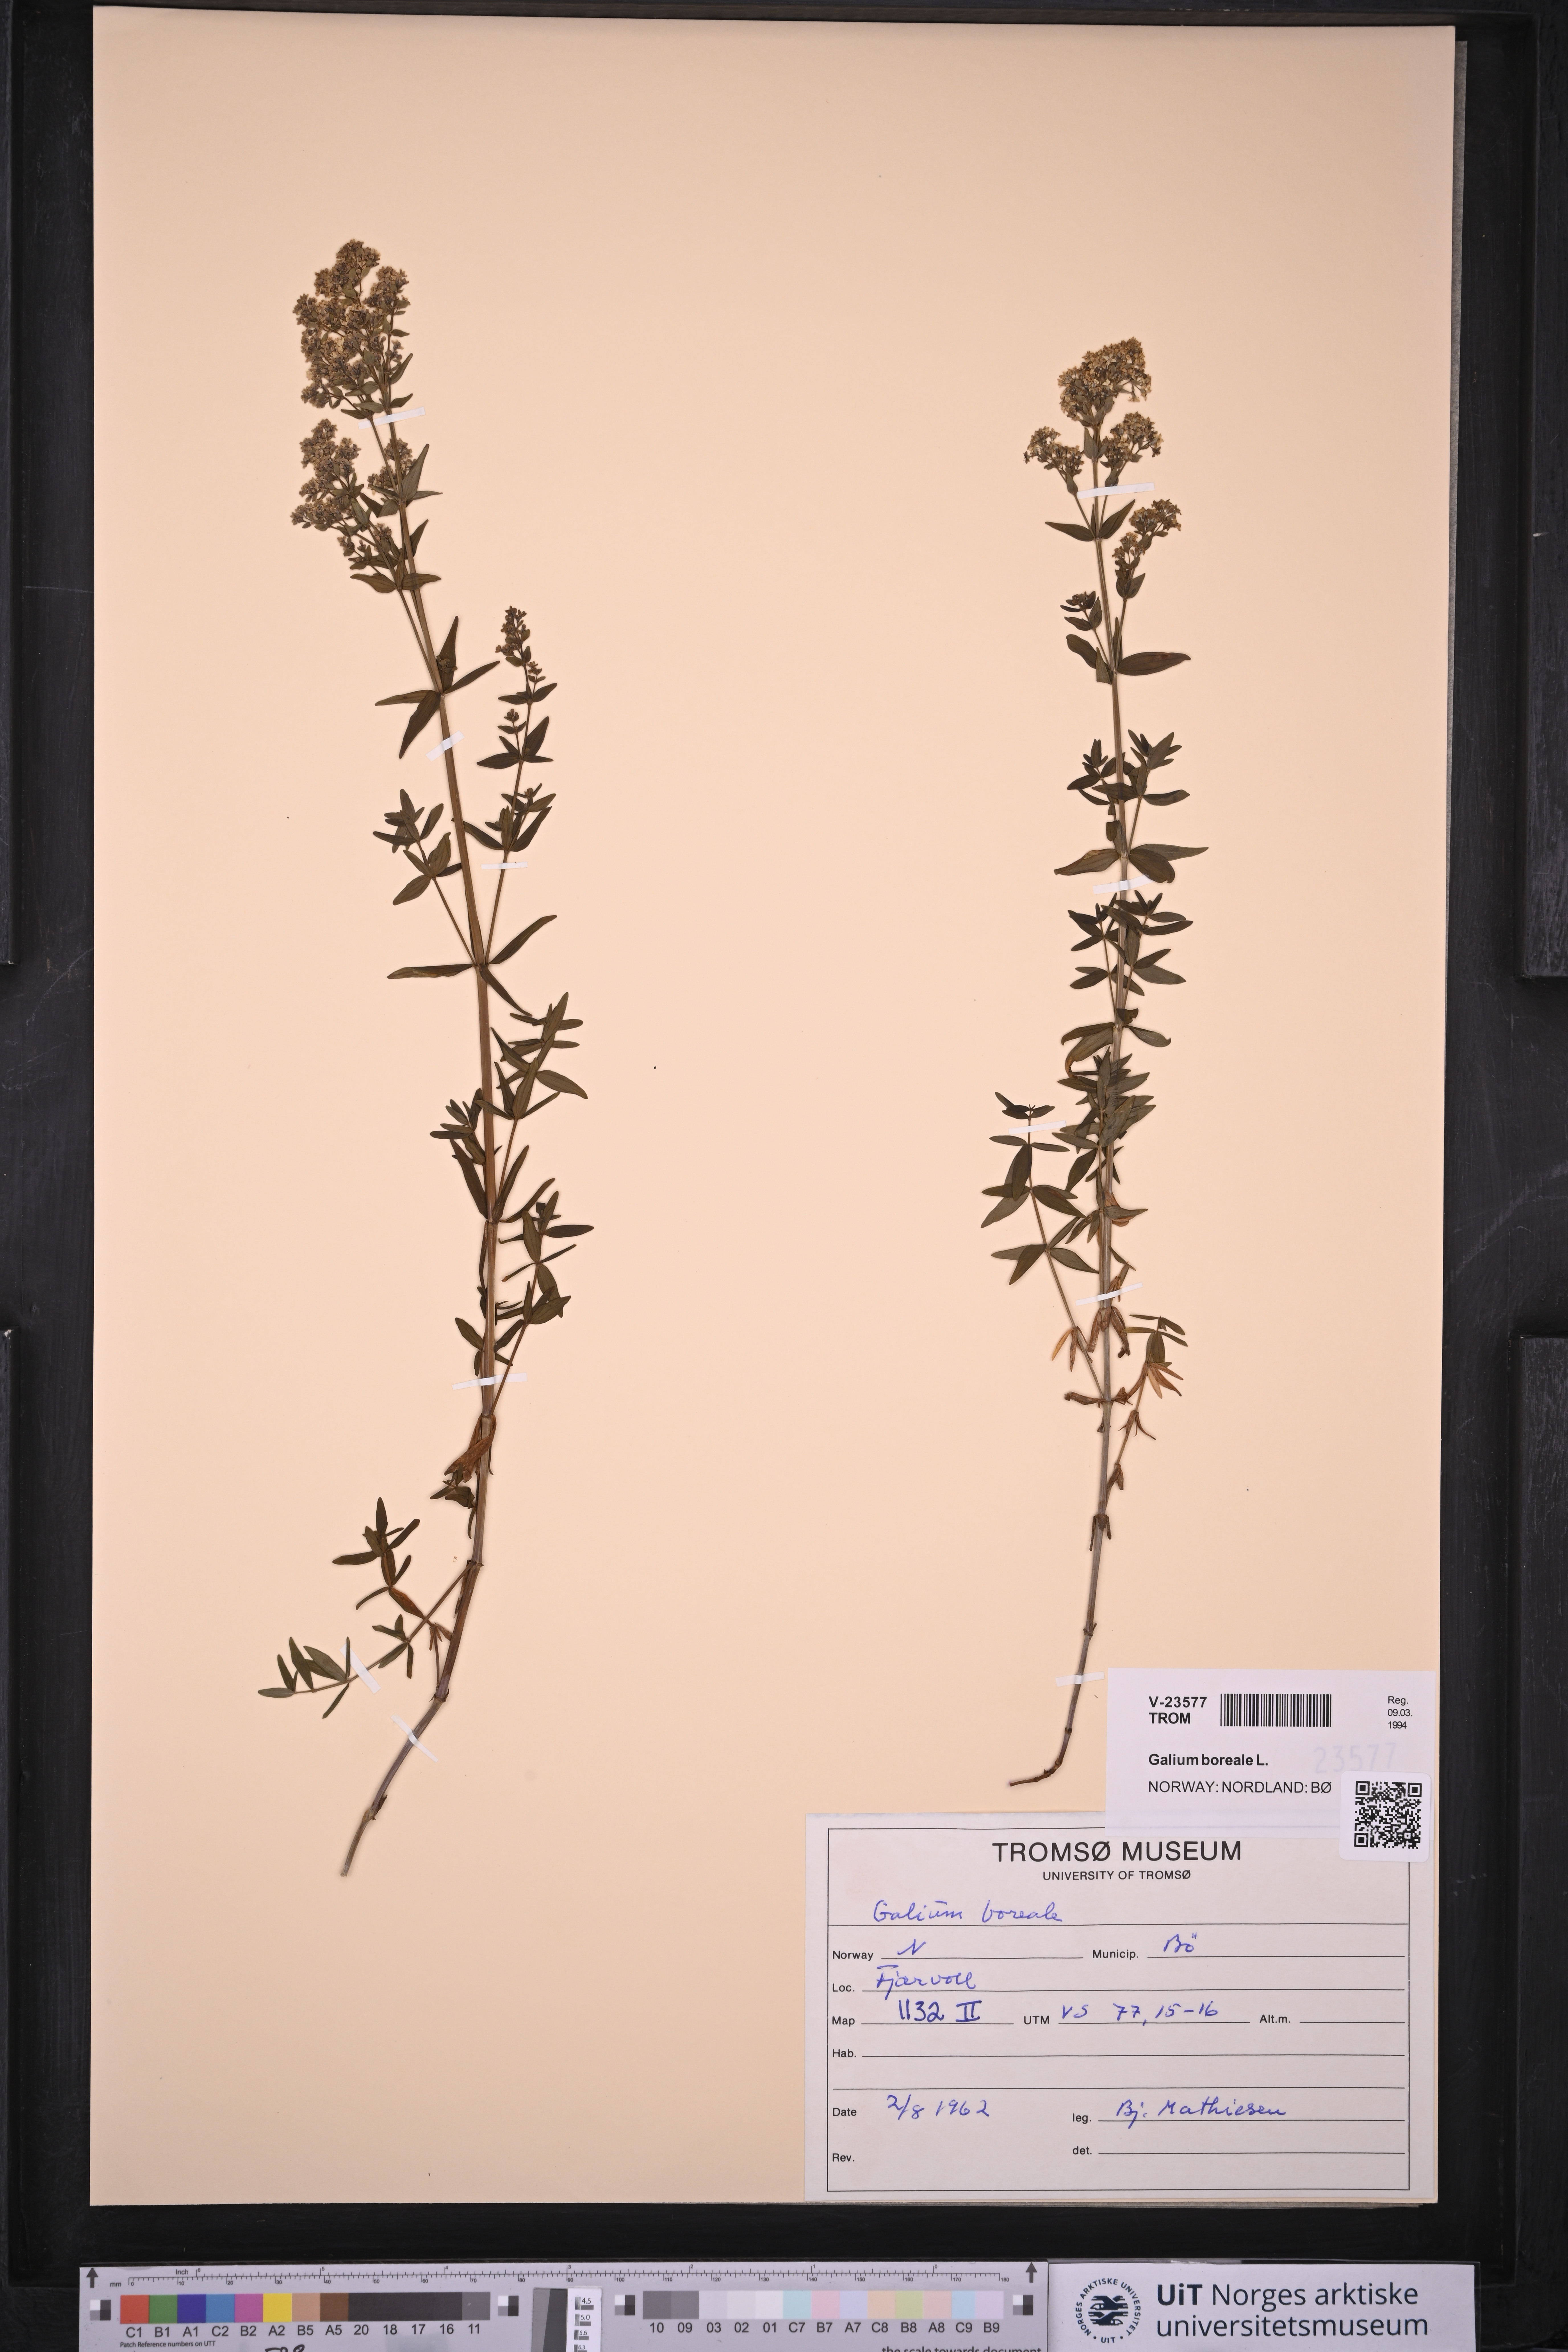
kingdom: Plantae
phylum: Tracheophyta
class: Magnoliopsida
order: Gentianales
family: Rubiaceae
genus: Galium
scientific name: Galium boreale
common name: Northern bedstraw
